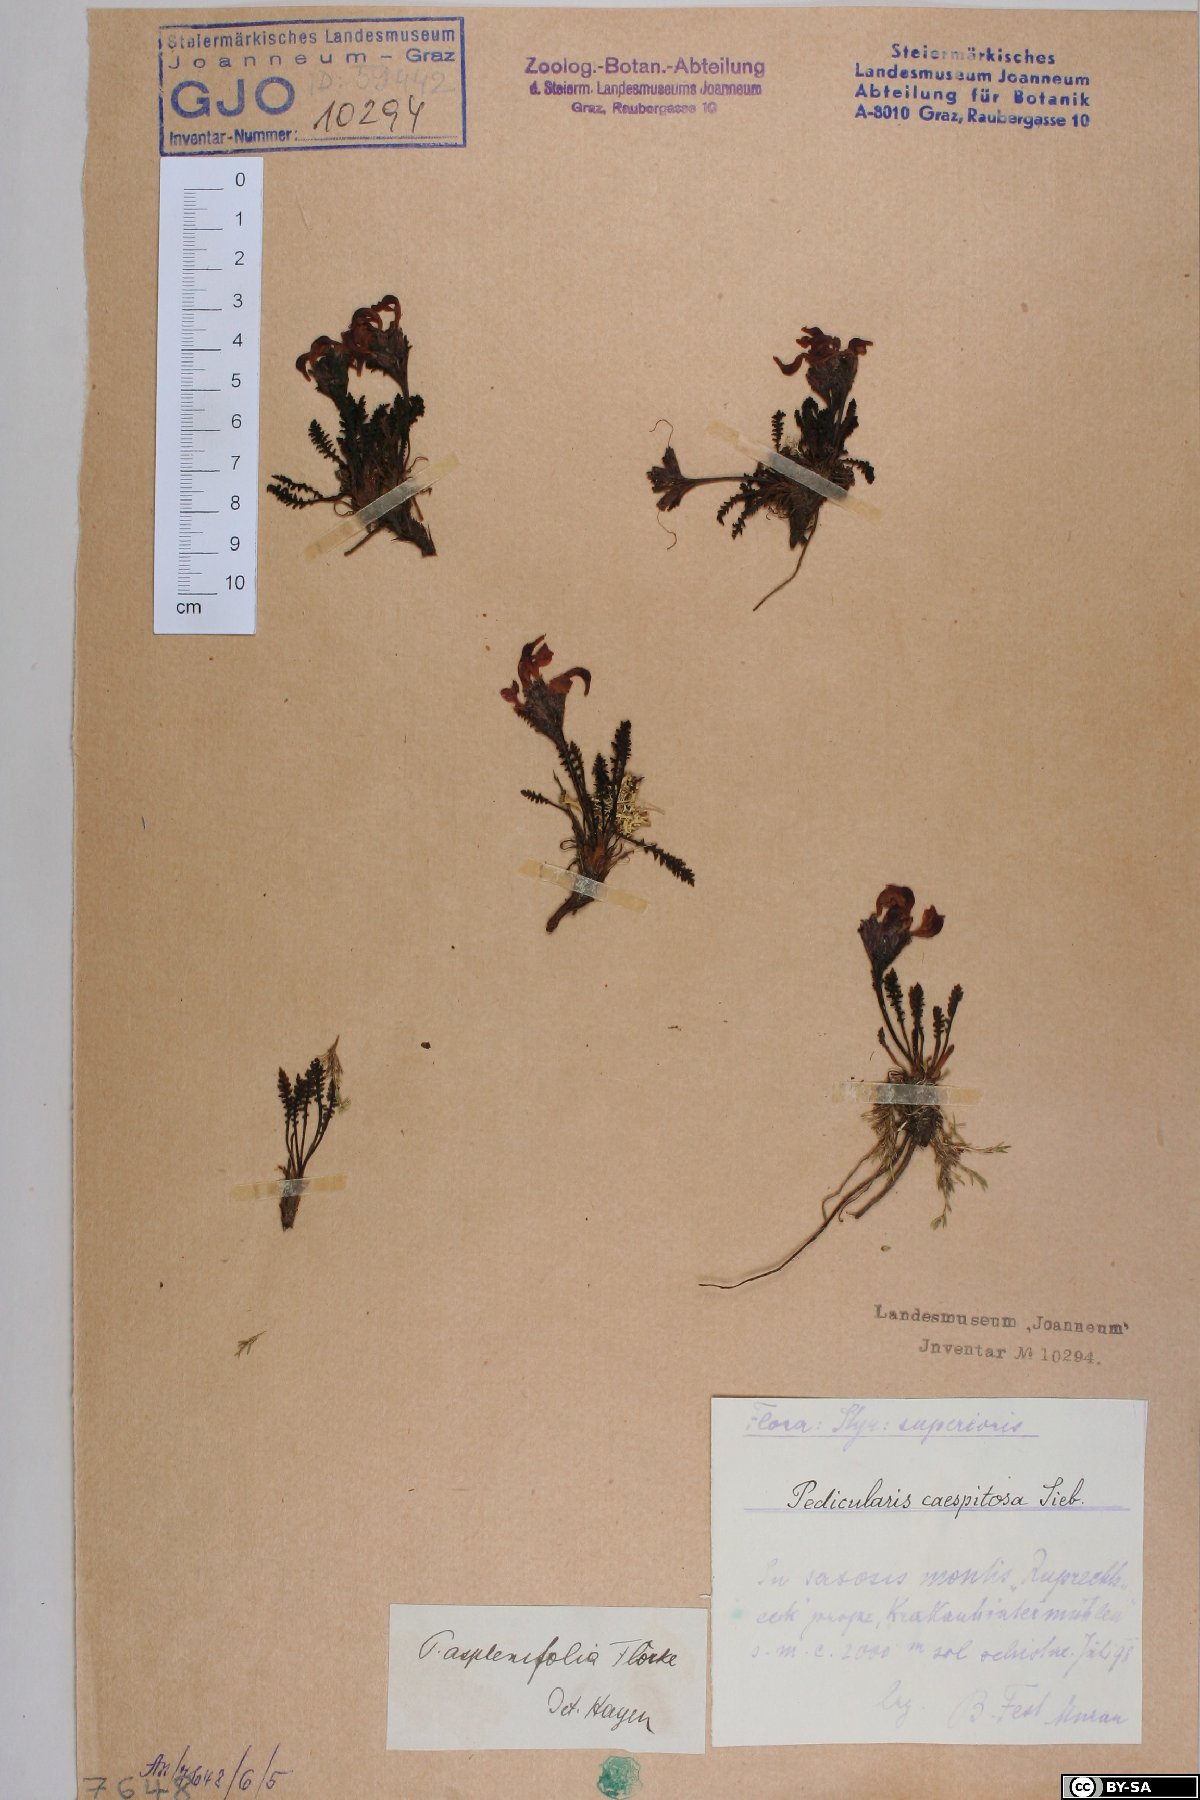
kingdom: Plantae
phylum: Tracheophyta
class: Magnoliopsida
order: Lamiales
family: Orobanchaceae
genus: Pedicularis
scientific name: Pedicularis asplenifolia
